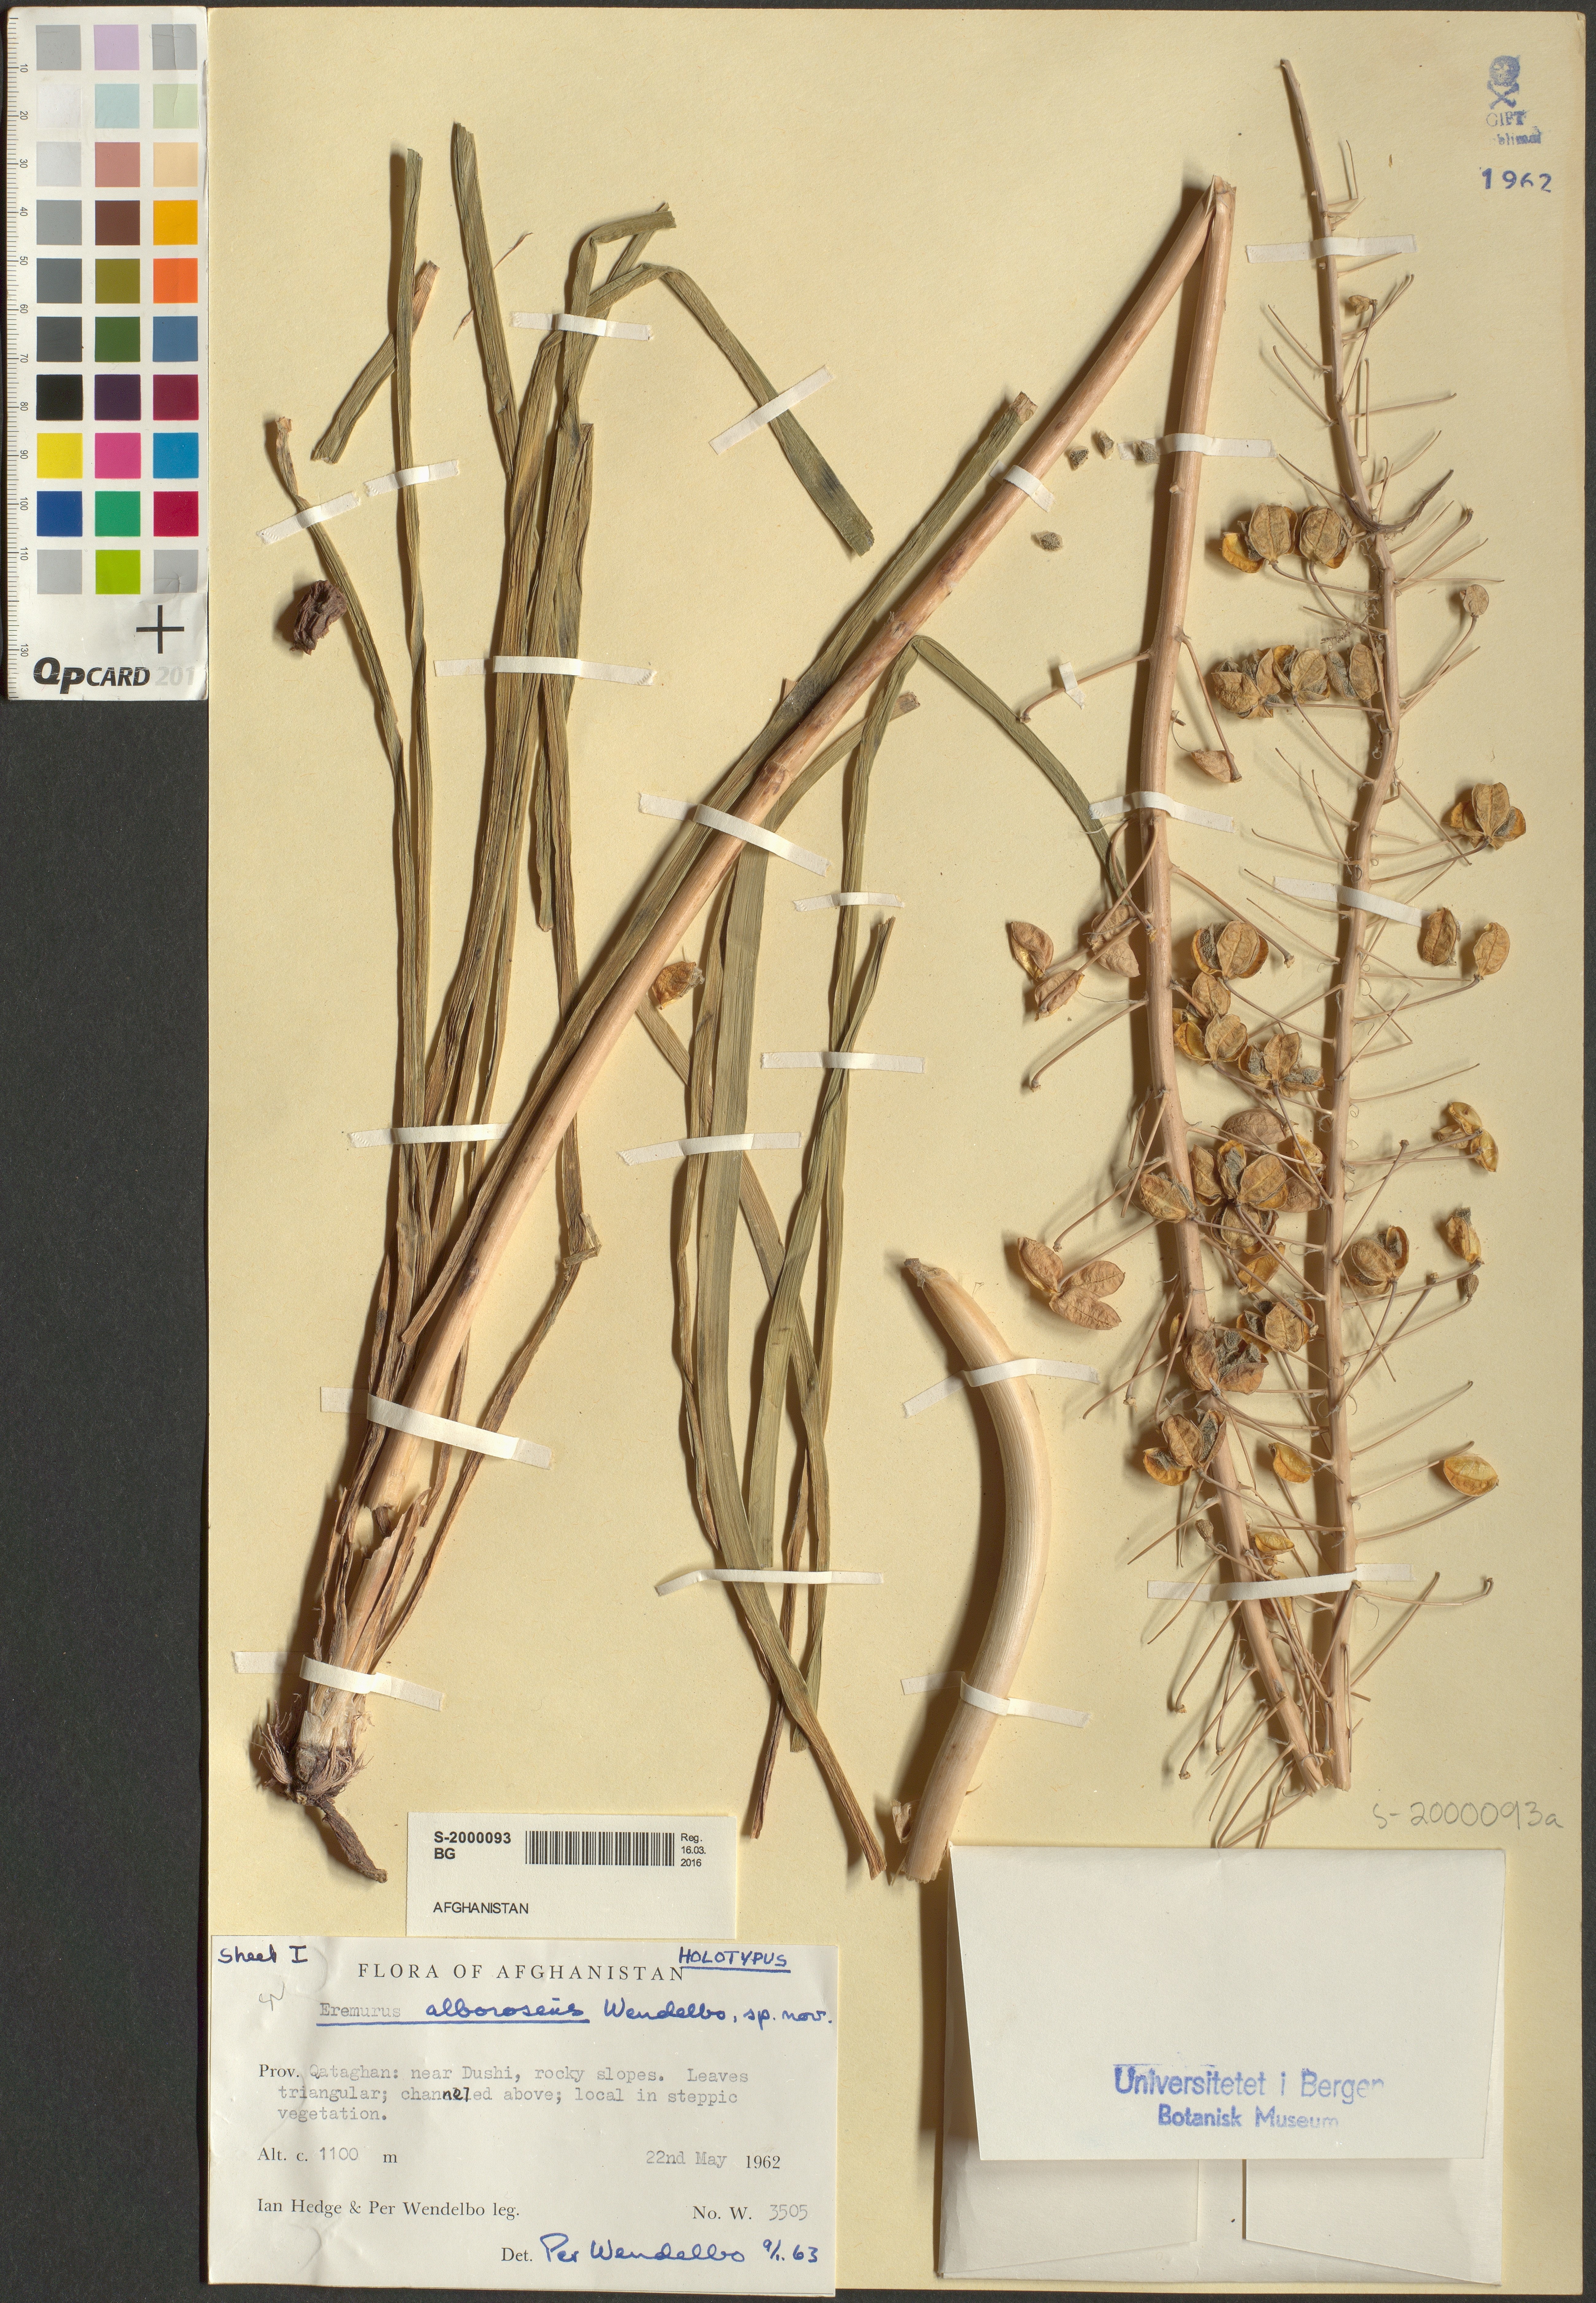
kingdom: Plantae
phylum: Tracheophyta
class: Liliopsida
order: Asparagales
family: Asphodelaceae
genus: Eremurus
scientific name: Eremurus roseolus
